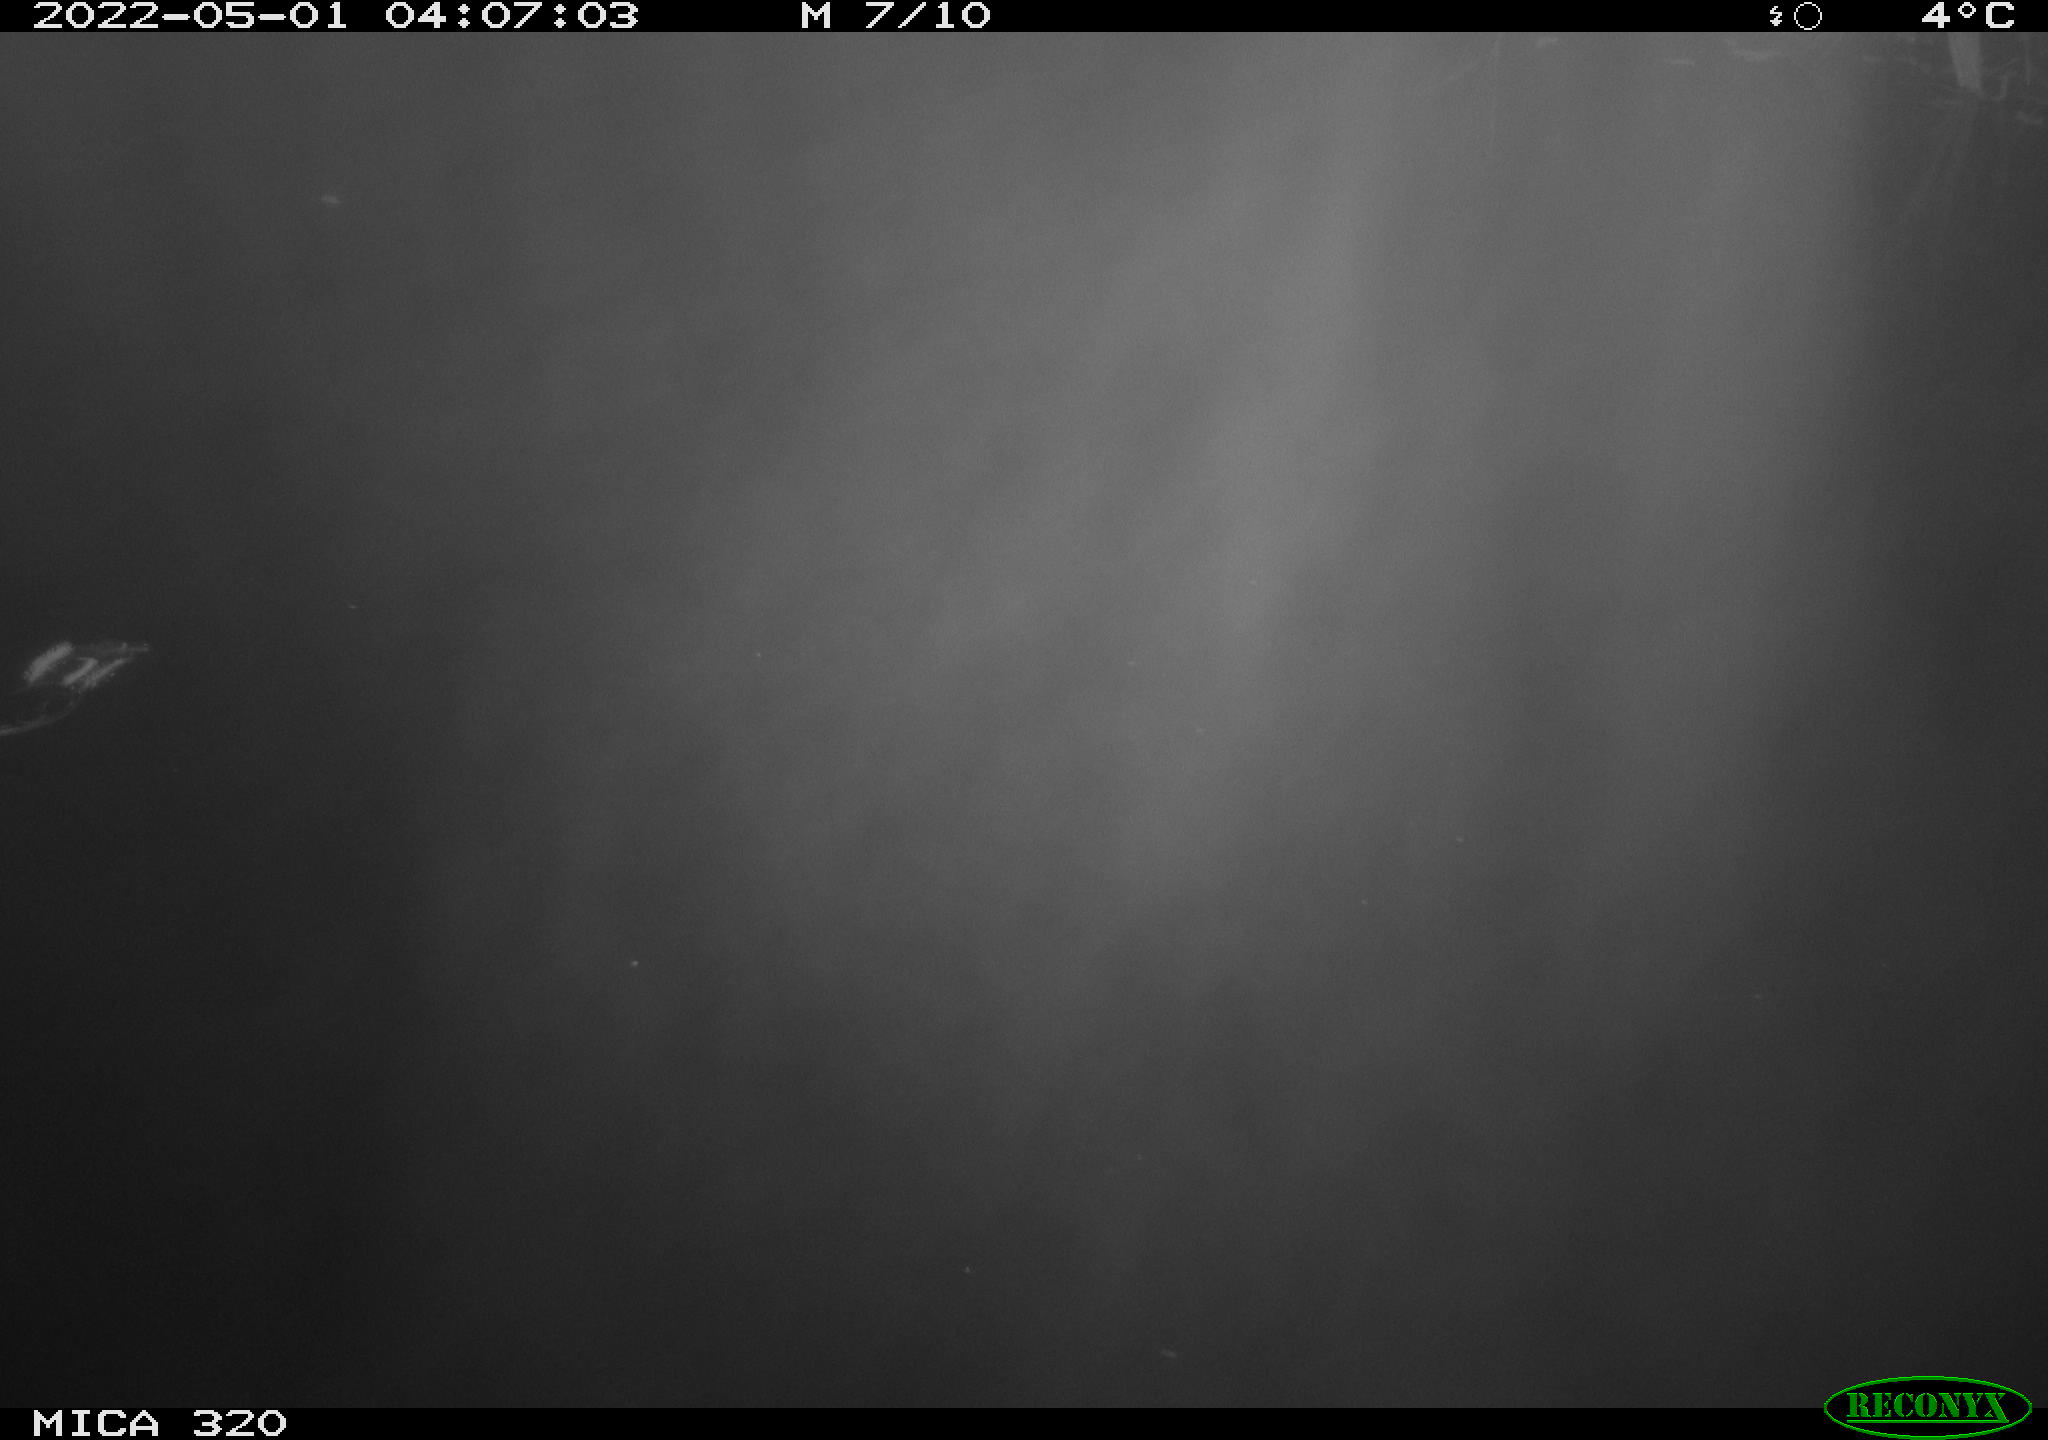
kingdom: Animalia
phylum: Chordata
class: Aves
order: Anseriformes
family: Anatidae
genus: Anas
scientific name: Anas platyrhynchos
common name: Mallard
